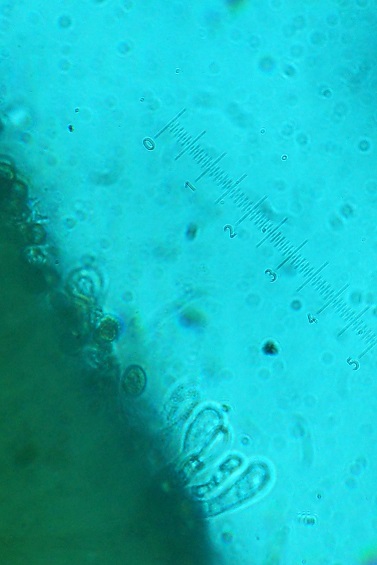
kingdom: Fungi
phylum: Basidiomycota
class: Agaricomycetes
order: Agaricales
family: Cortinariaceae
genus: Cortinarius
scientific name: Cortinarius pseudoacutus
